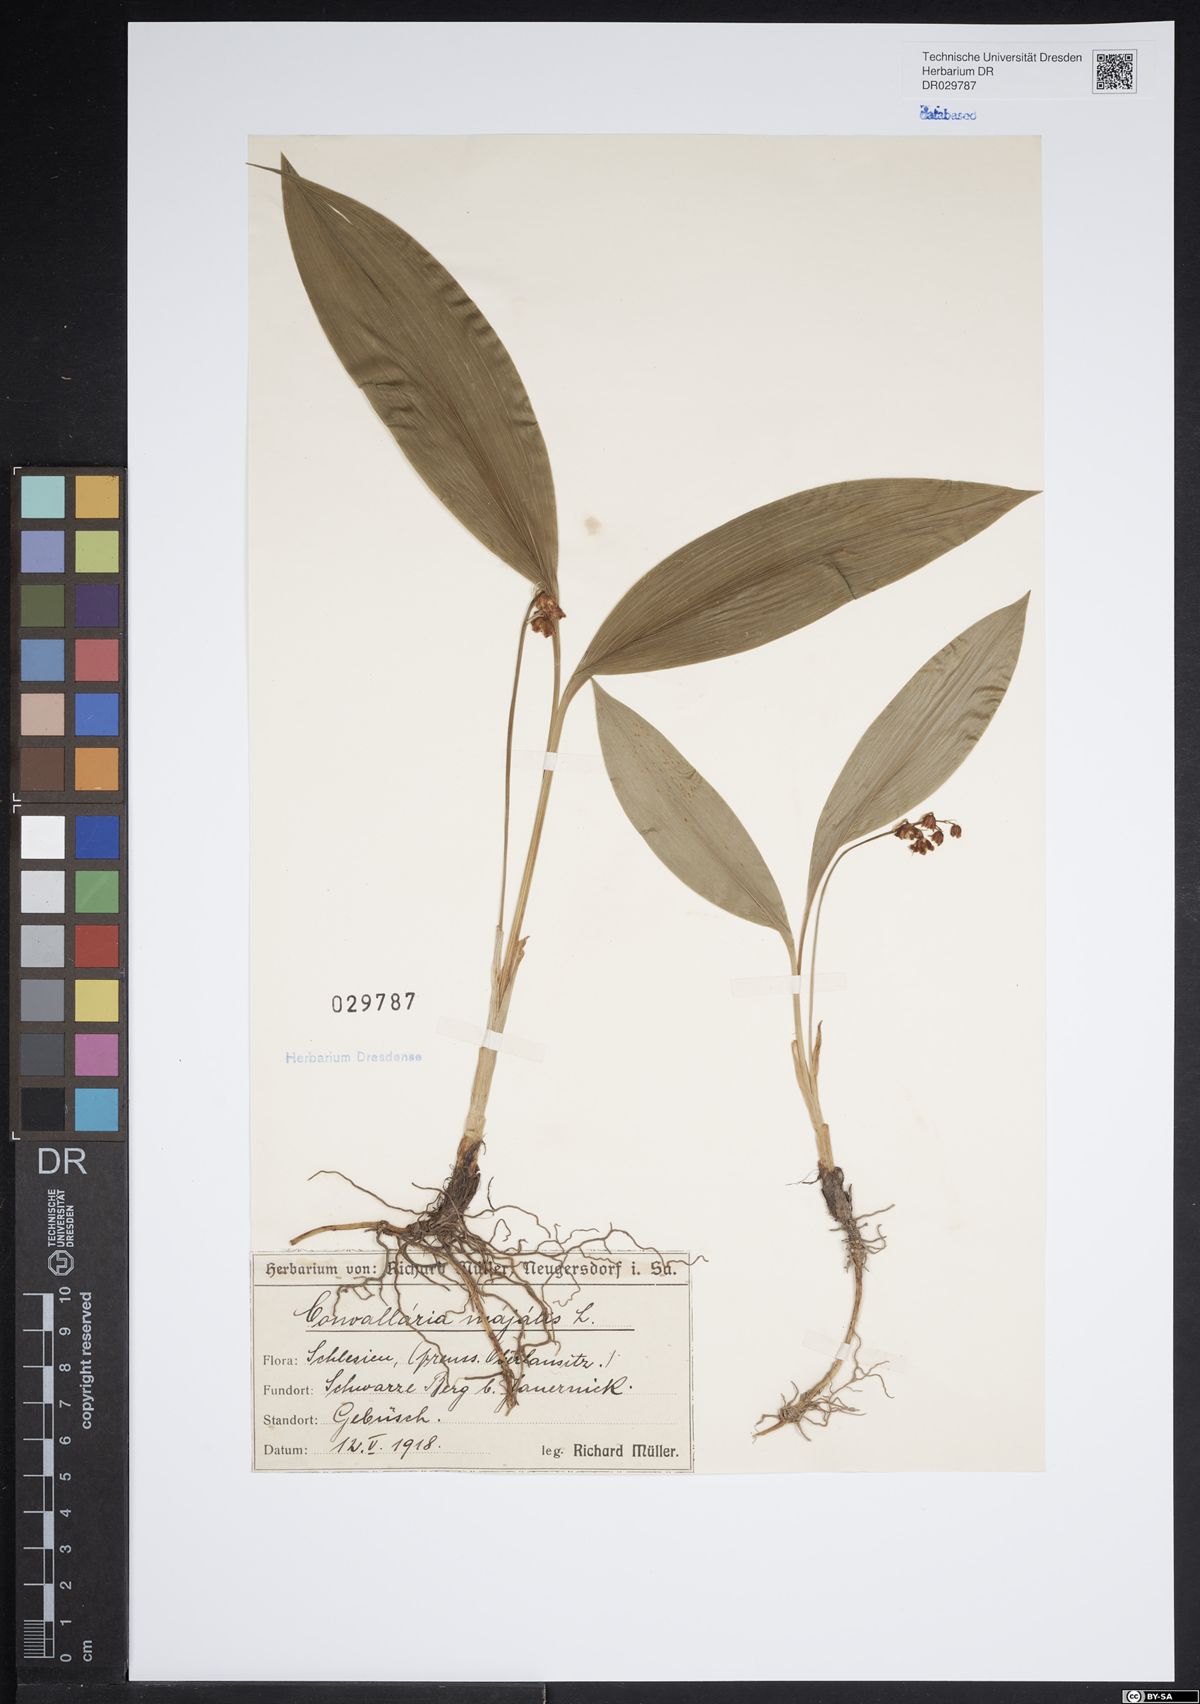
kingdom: Plantae
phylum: Tracheophyta
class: Liliopsida
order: Asparagales
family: Asparagaceae
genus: Convallaria
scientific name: Convallaria majalis
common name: Lily-of-the-valley
